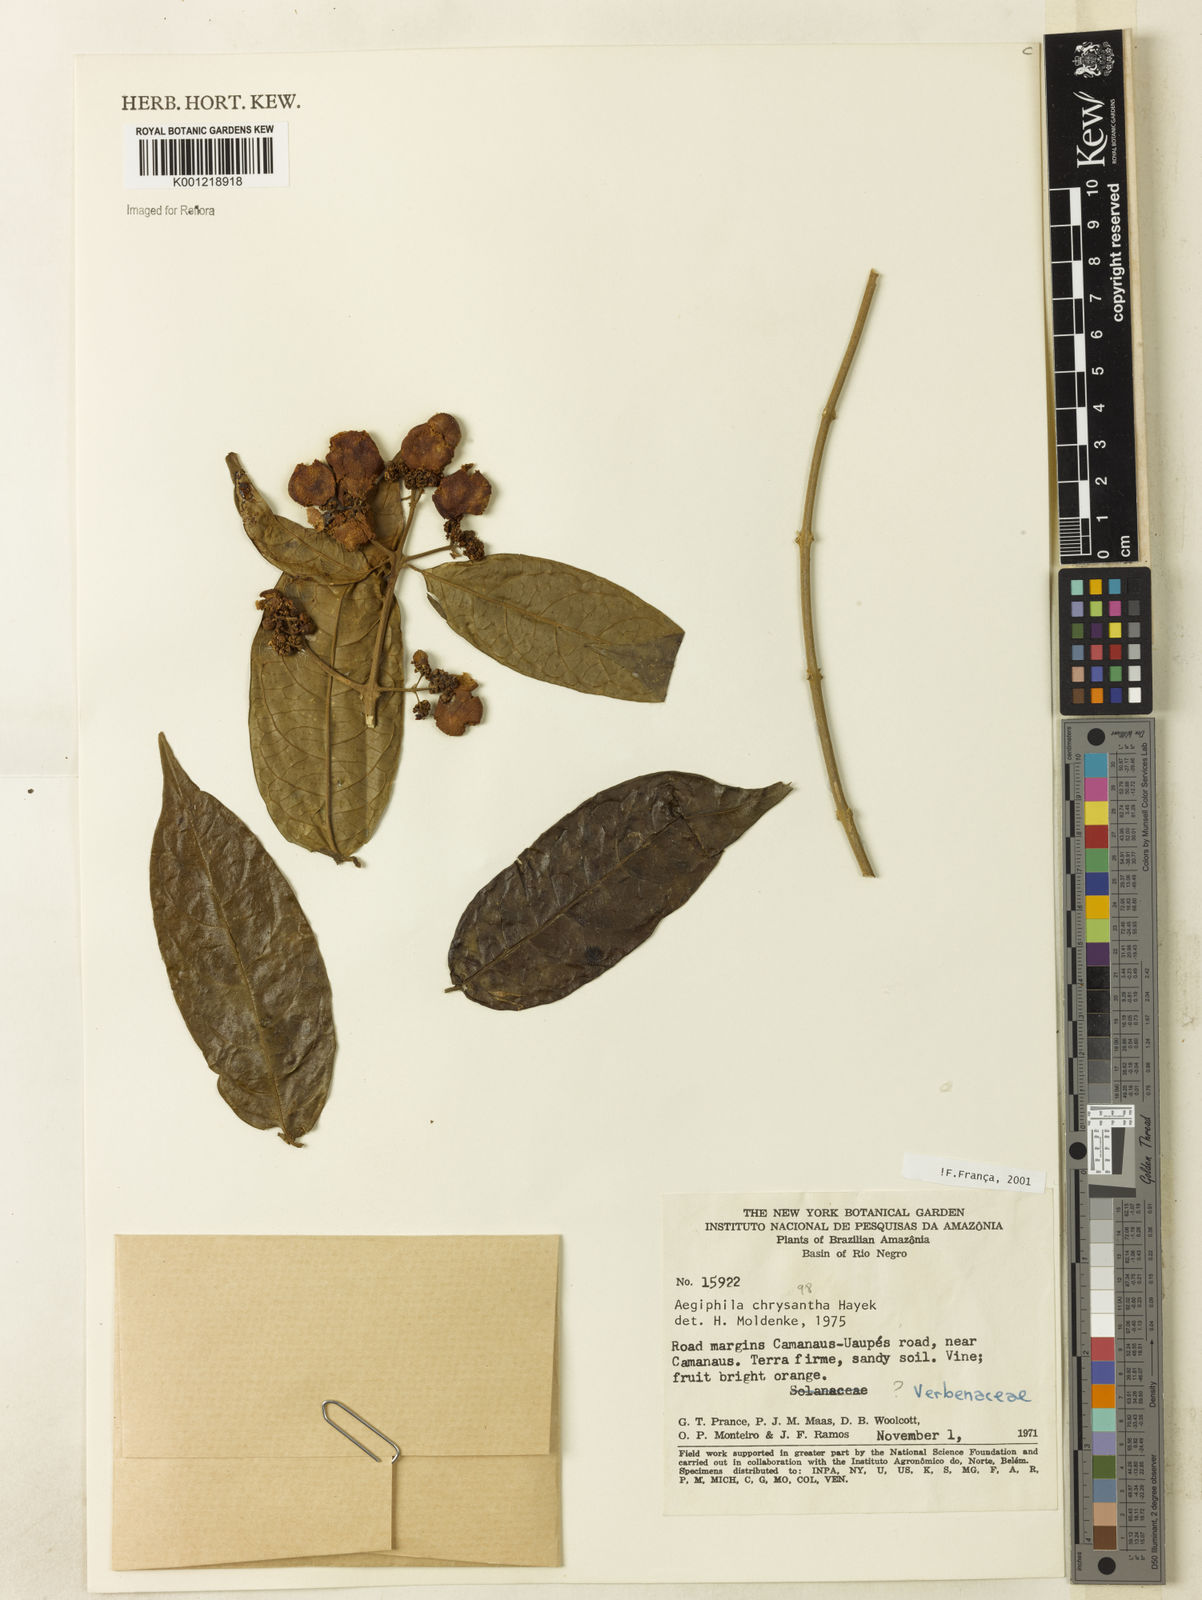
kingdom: Plantae
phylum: Tracheophyta
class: Magnoliopsida
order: Lamiales
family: Lamiaceae
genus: Aegiphila
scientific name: Aegiphila vitelliniflora
